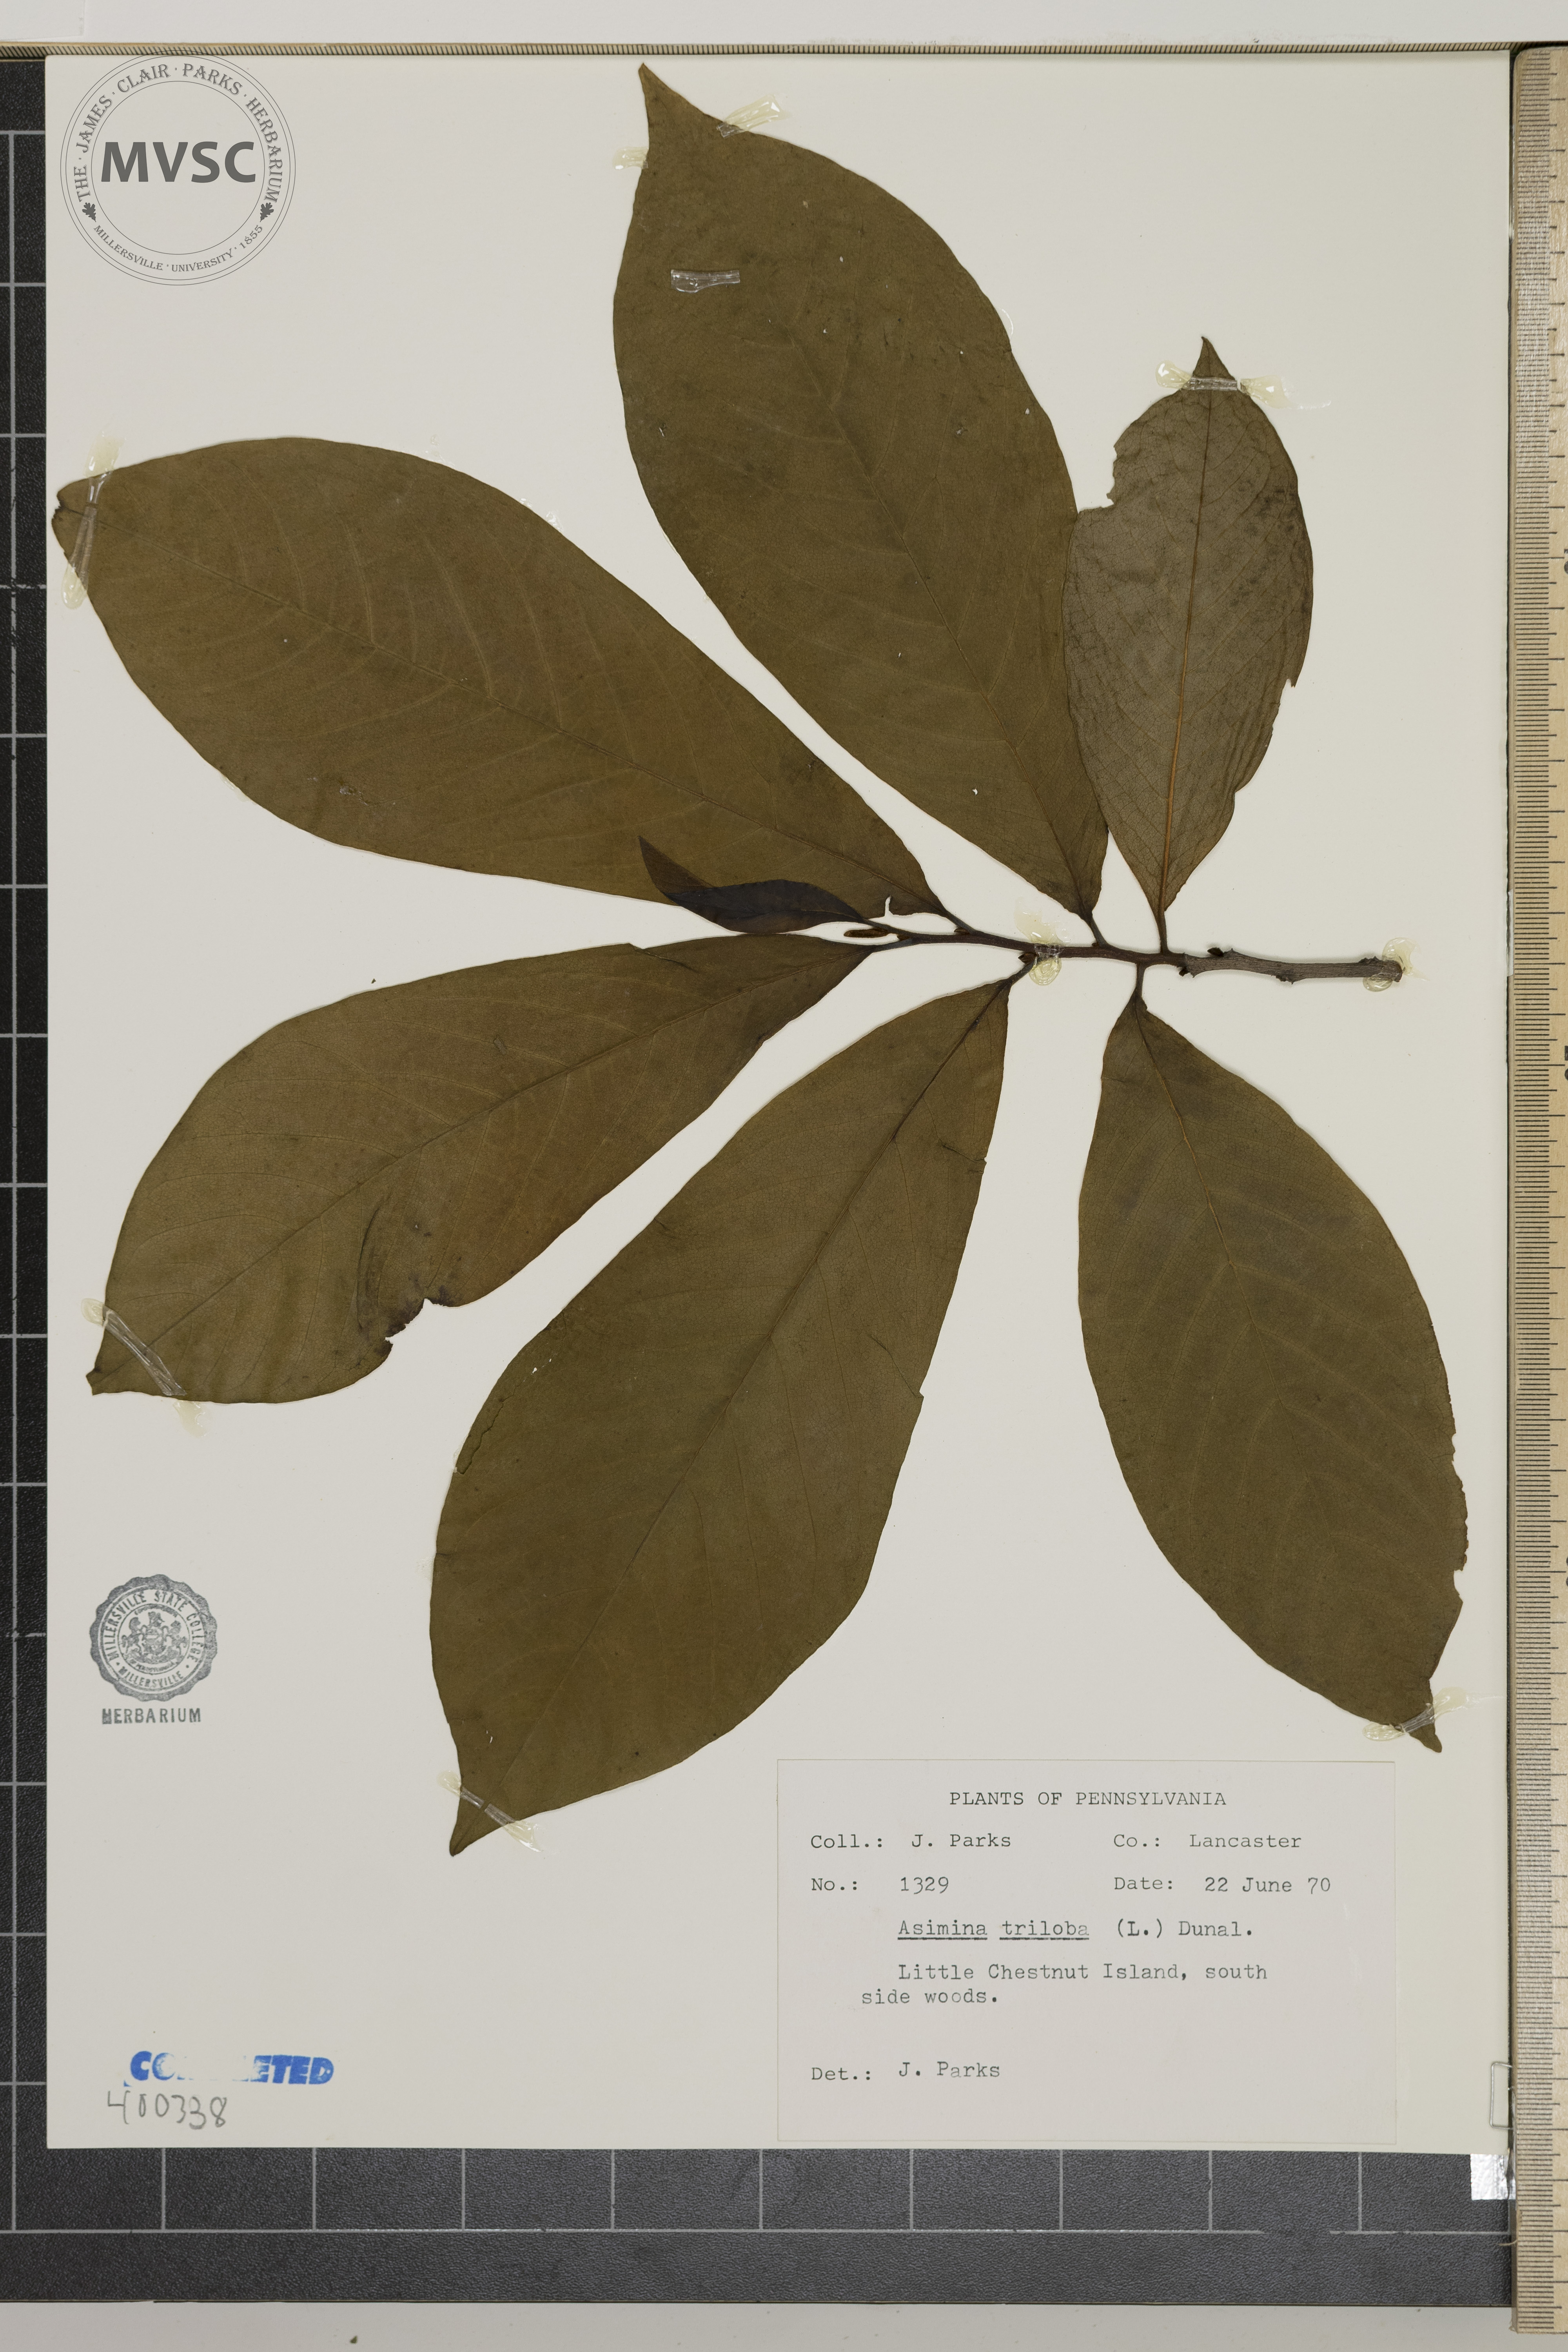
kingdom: Plantae
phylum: Tracheophyta
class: Magnoliopsida
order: Magnoliales
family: Annonaceae
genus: Asimina
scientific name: Asimina triloba
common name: pawpaw
